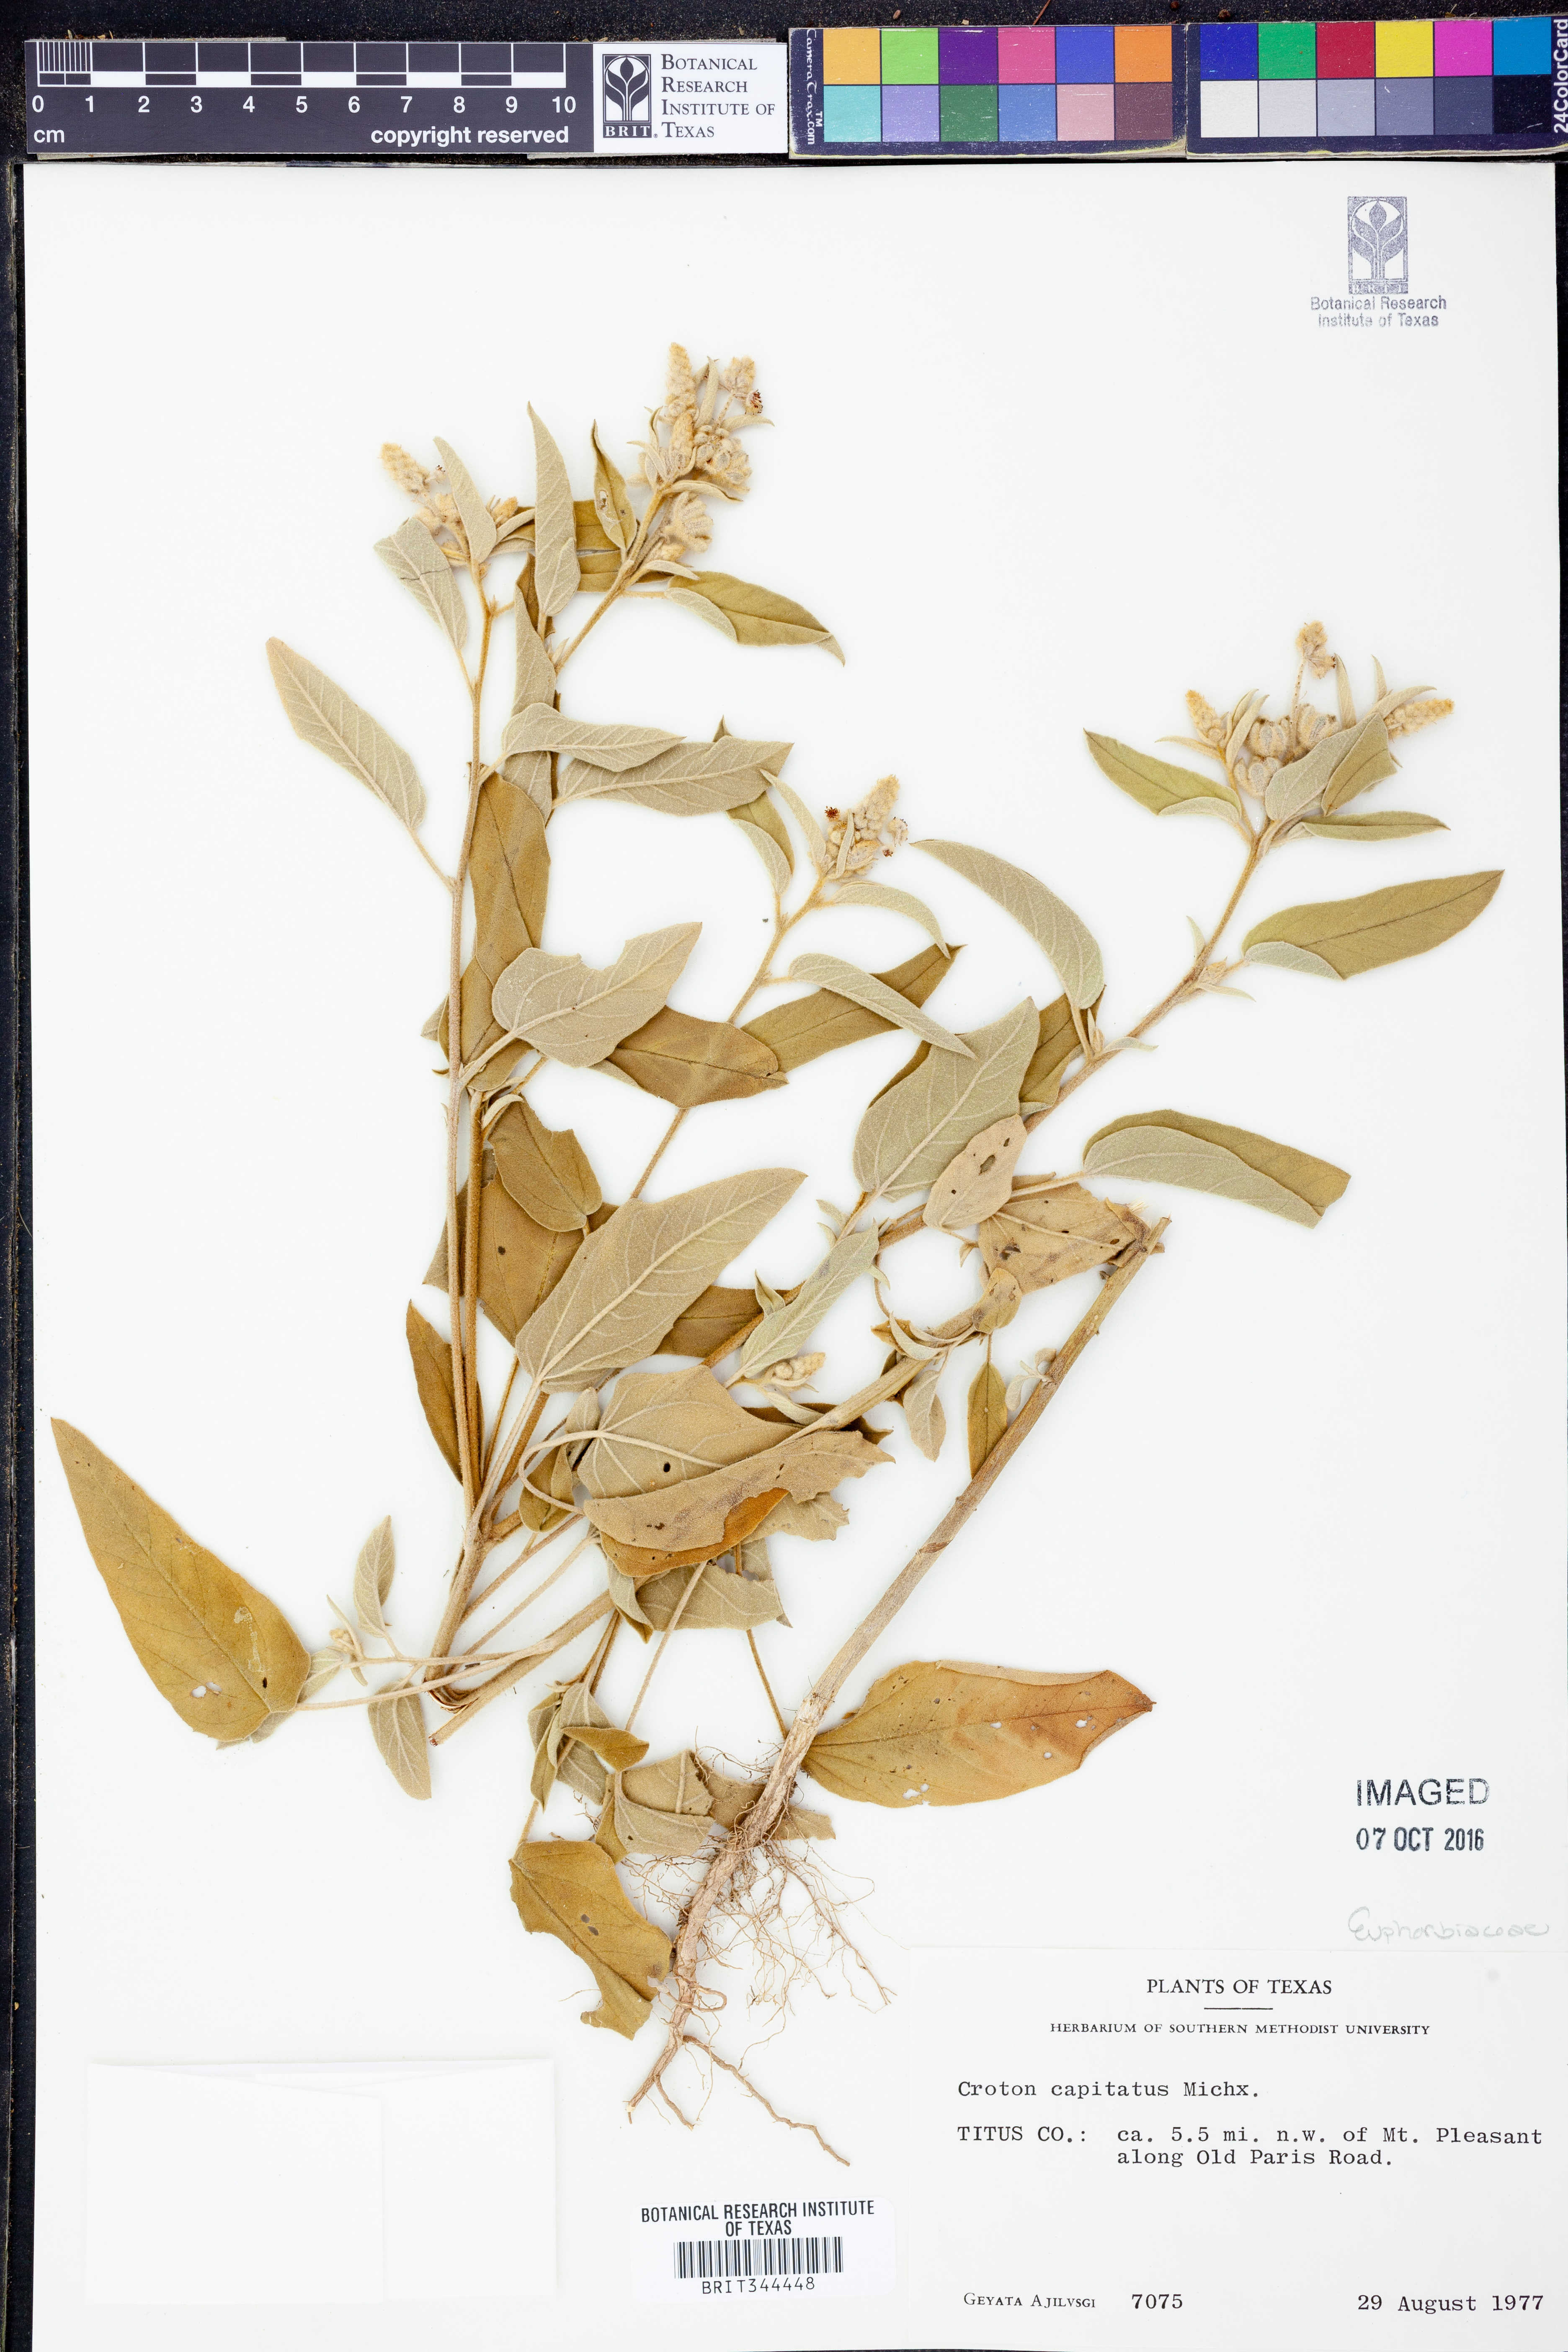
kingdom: Plantae
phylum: Tracheophyta
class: Magnoliopsida
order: Malpighiales
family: Euphorbiaceae
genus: Croton
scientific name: Croton capitatus
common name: Woolly croton
